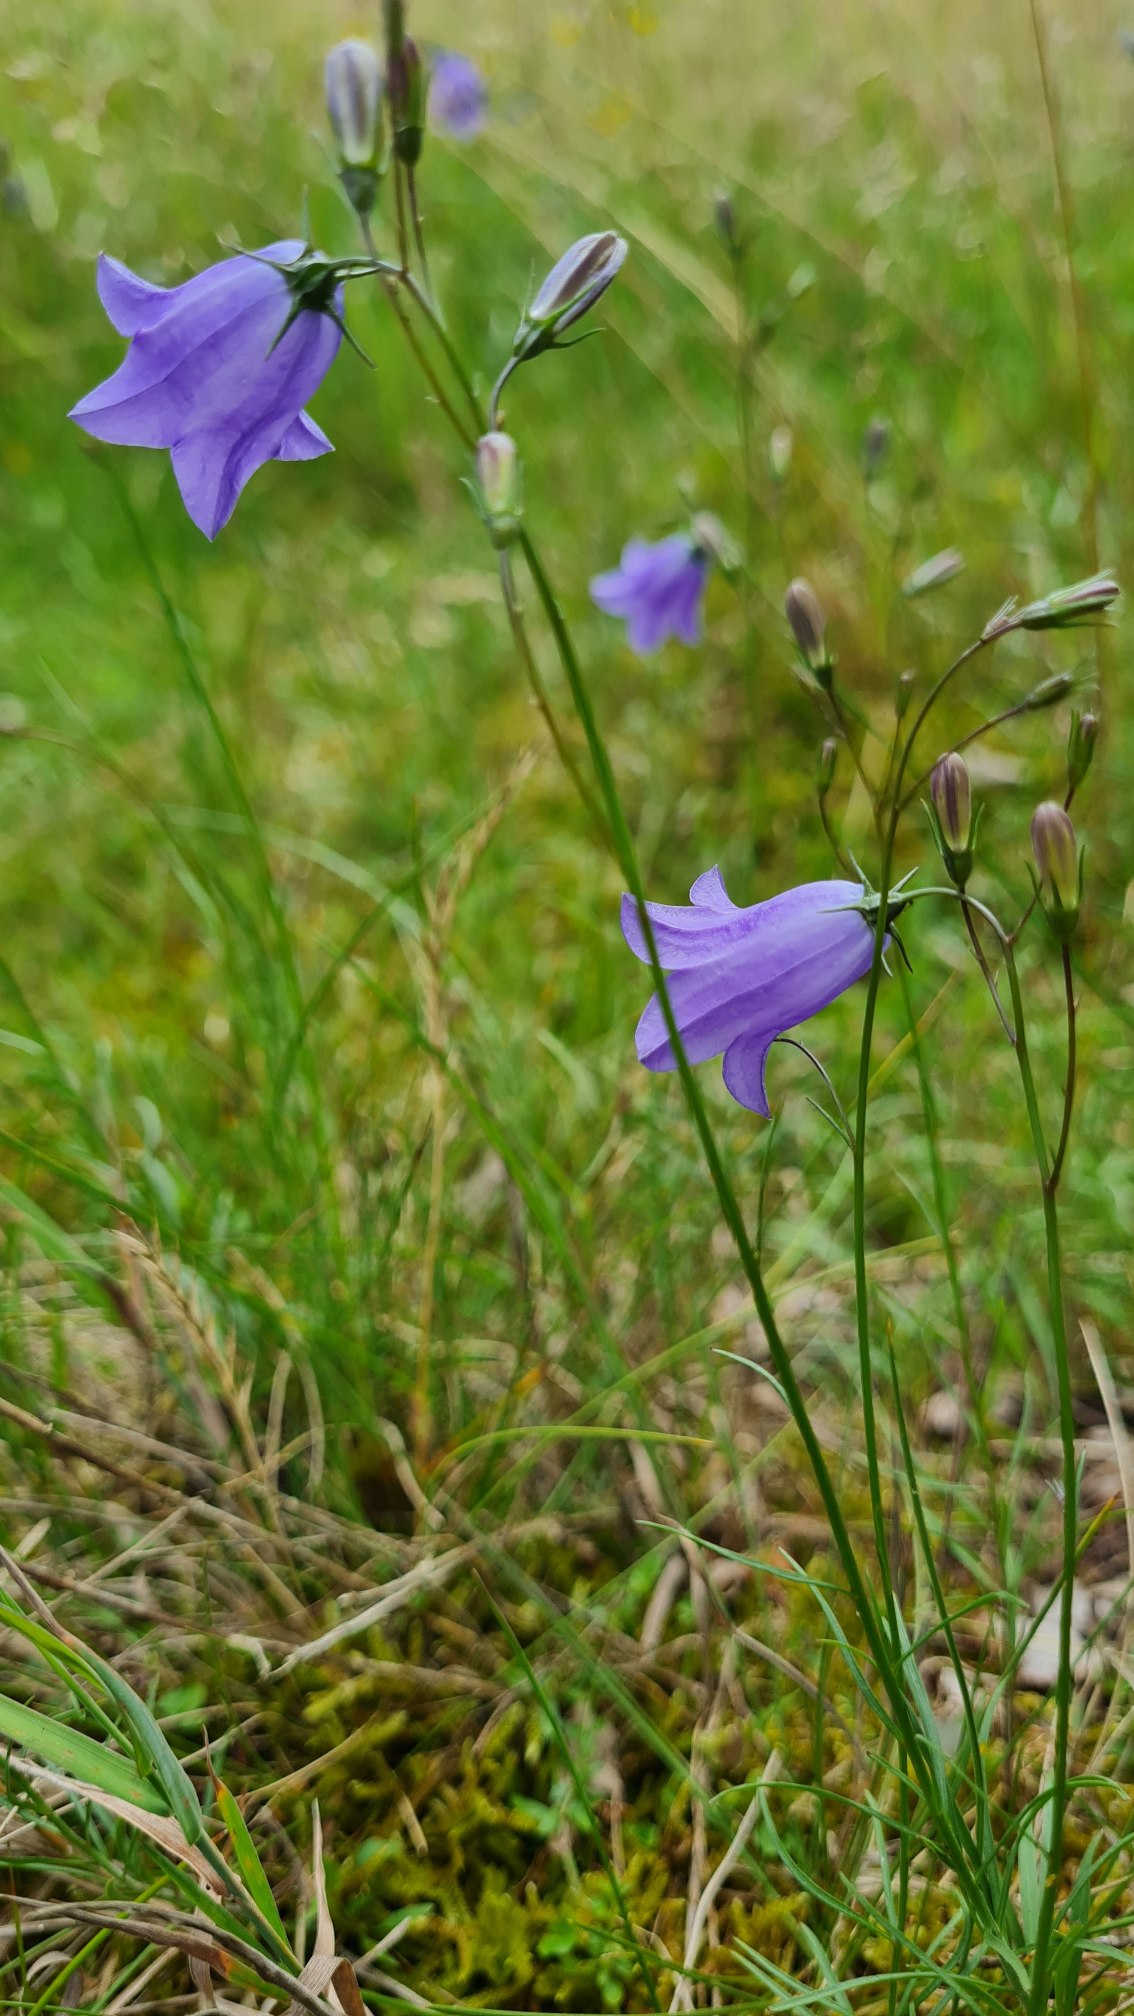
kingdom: Plantae
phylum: Tracheophyta
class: Magnoliopsida
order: Asterales
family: Campanulaceae
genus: Campanula
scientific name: Campanula rotundifolia
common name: Liden klokke
